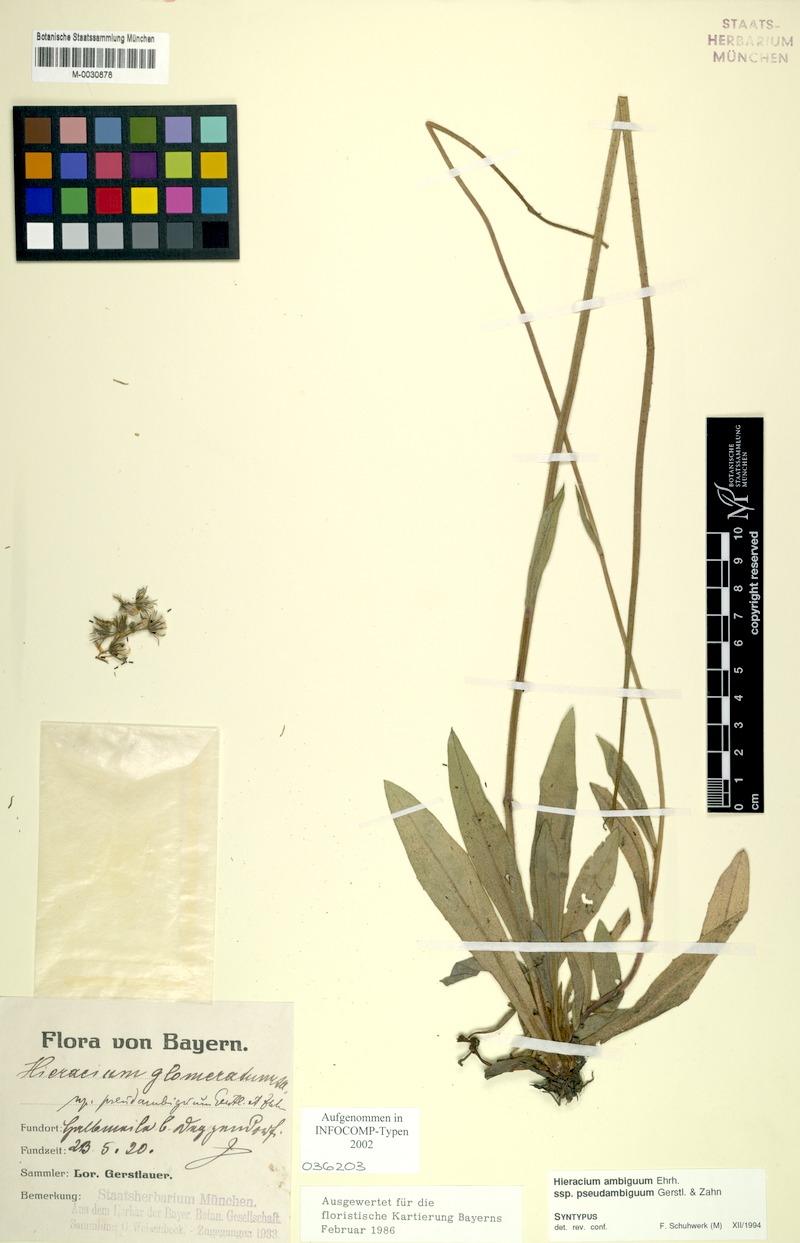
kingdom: Plantae
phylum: Tracheophyta
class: Magnoliopsida
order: Asterales
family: Asteraceae
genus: Pilosella
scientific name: Pilosella glomerata
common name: Queen devil hawkweed
